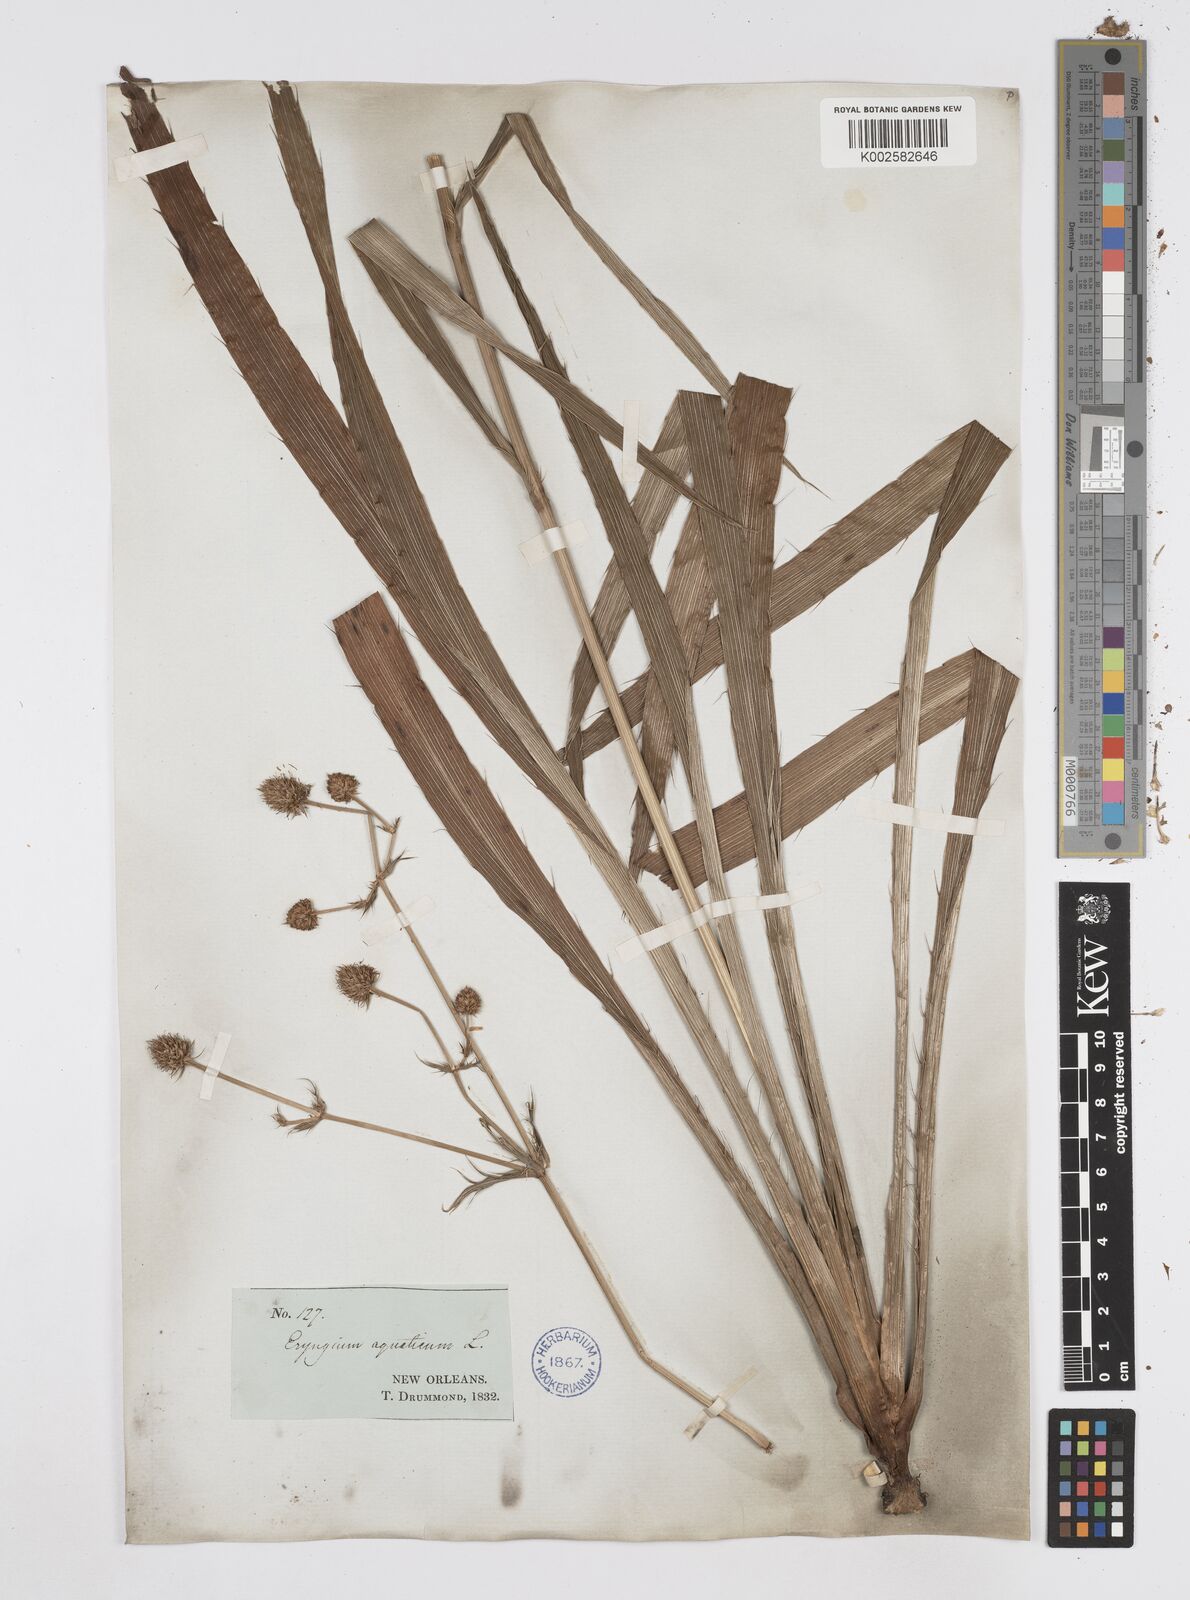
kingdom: Plantae
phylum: Tracheophyta
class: Magnoliopsida
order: Apiales
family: Apiaceae
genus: Eryngium
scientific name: Eryngium yuccifolium
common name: Button eryngo
